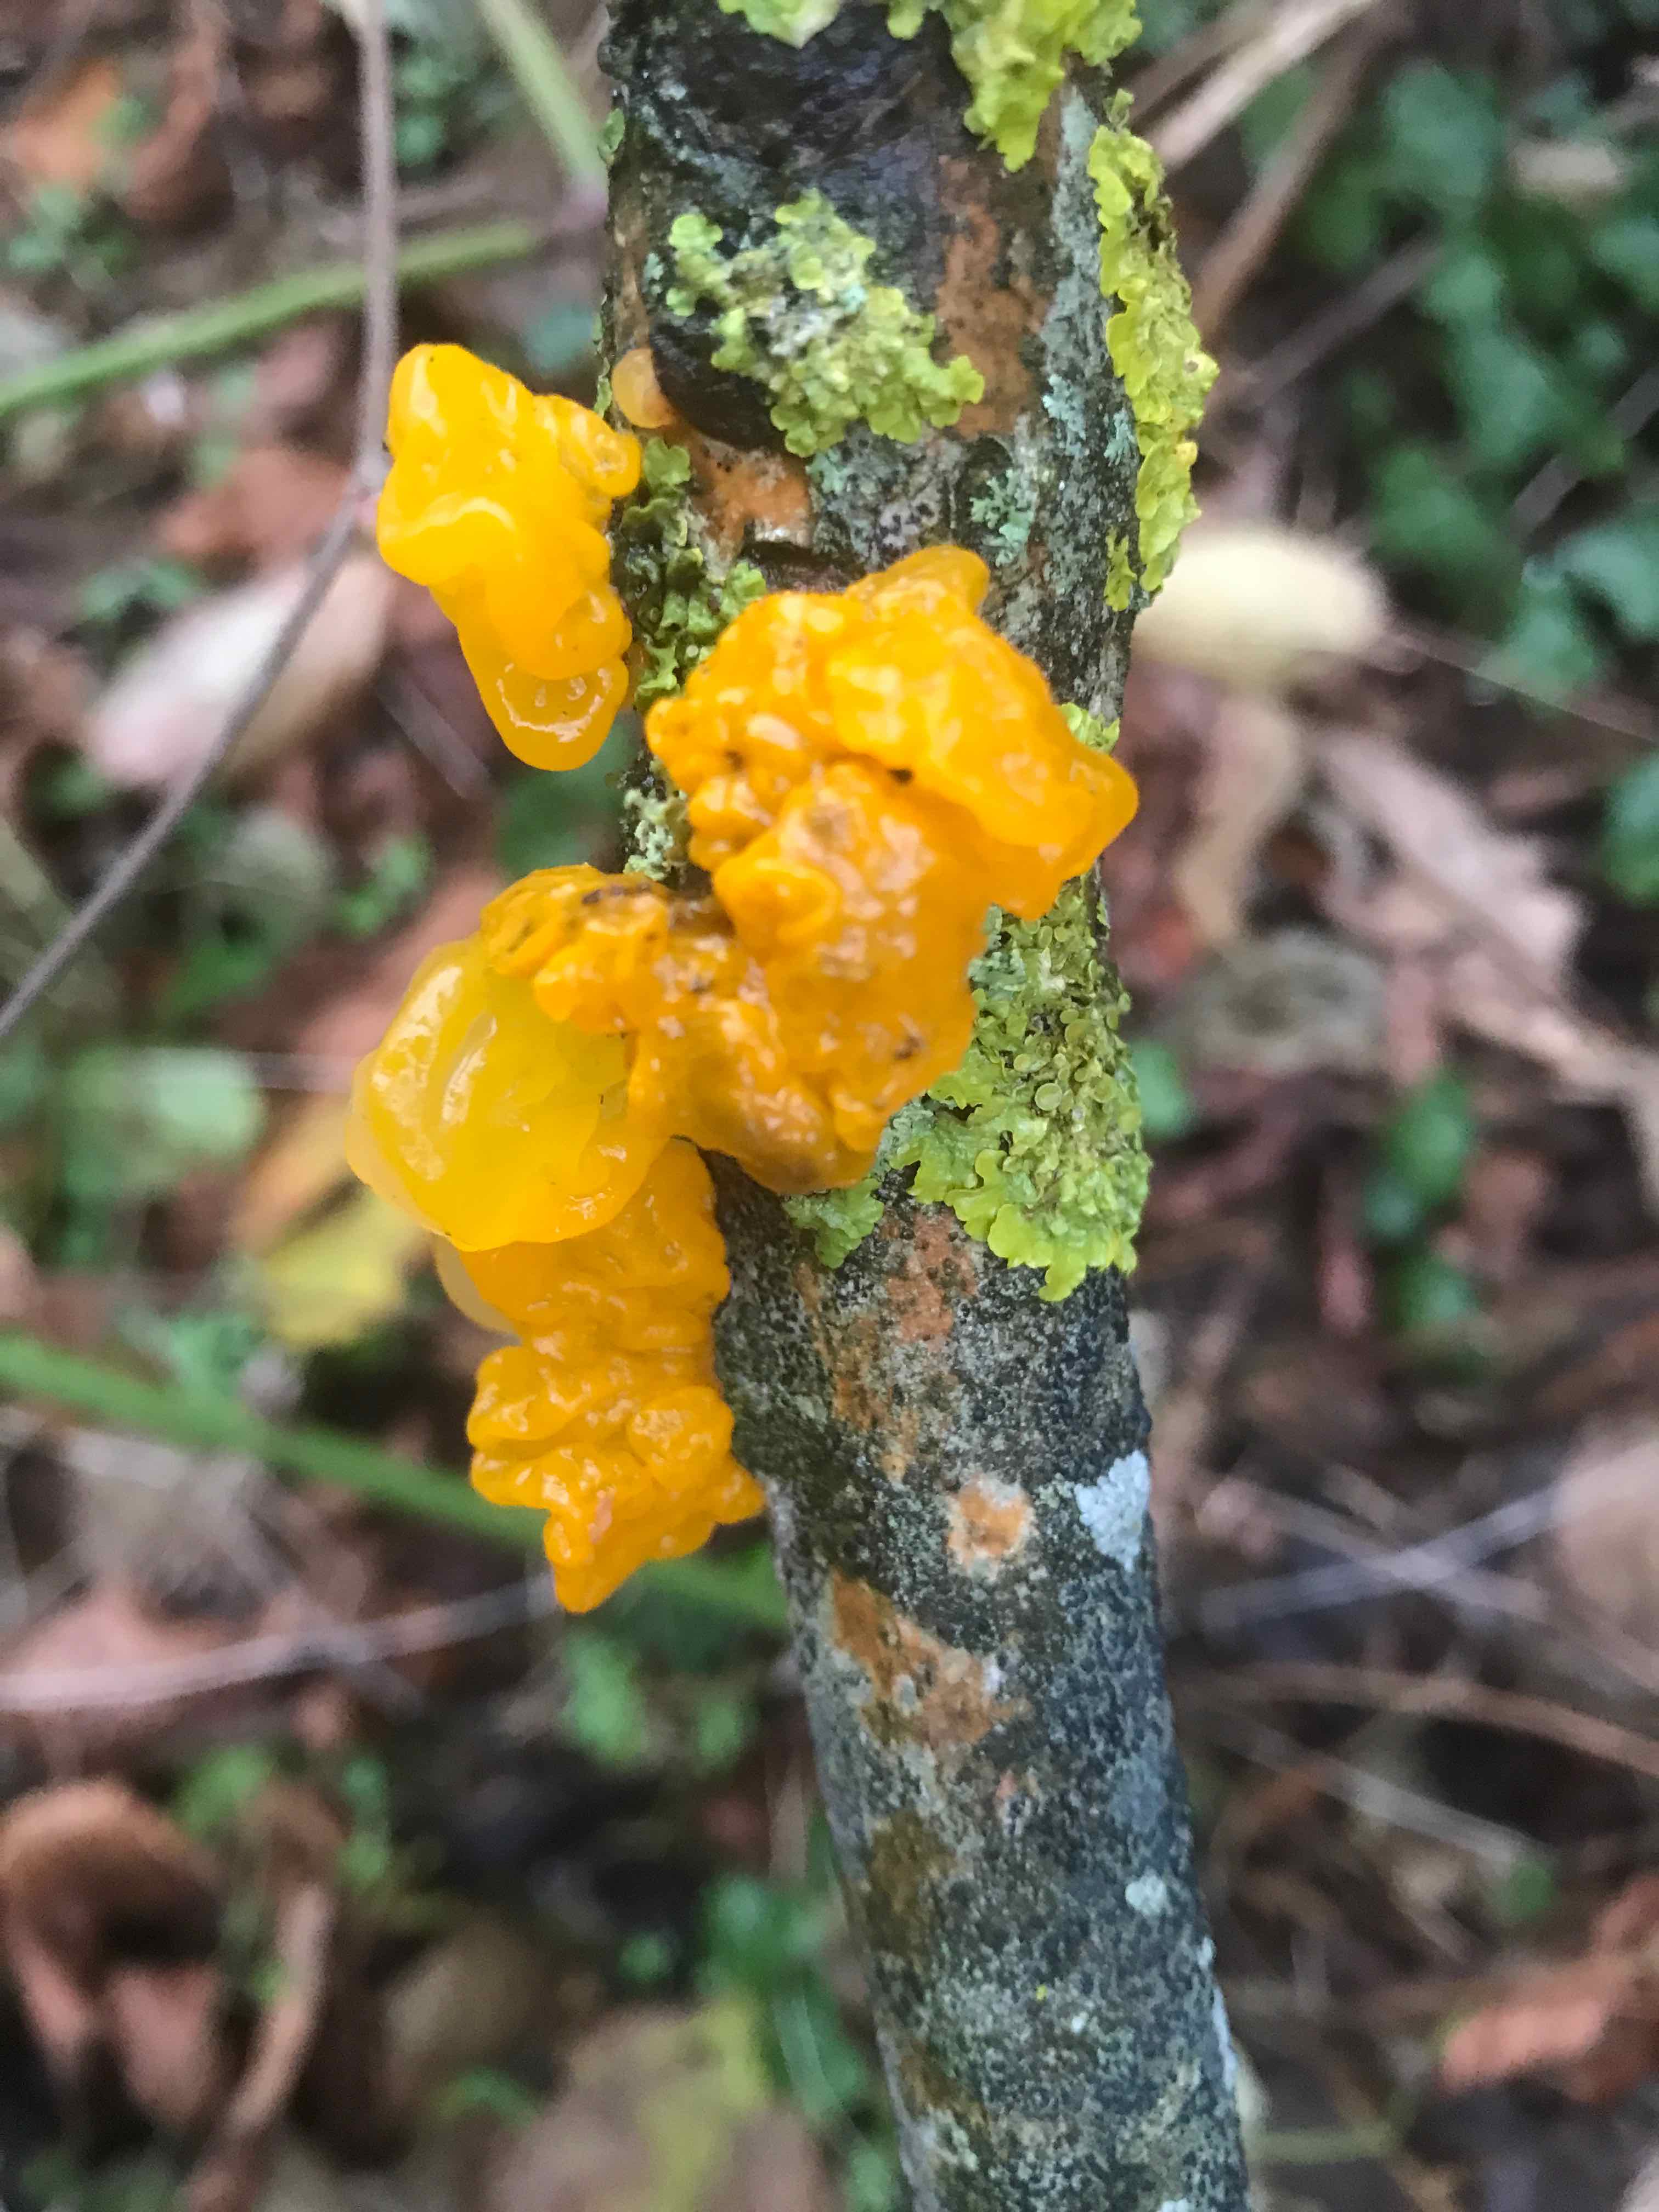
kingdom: Fungi
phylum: Basidiomycota
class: Tremellomycetes
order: Tremellales
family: Tremellaceae
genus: Tremella
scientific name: Tremella mesenterica
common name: gul bævresvamp
